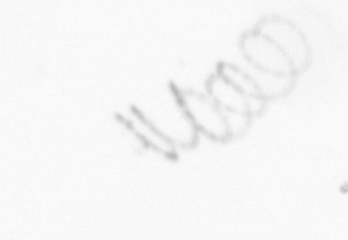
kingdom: Chromista
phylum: Ochrophyta
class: Bacillariophyceae
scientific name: Bacillariophyceae
